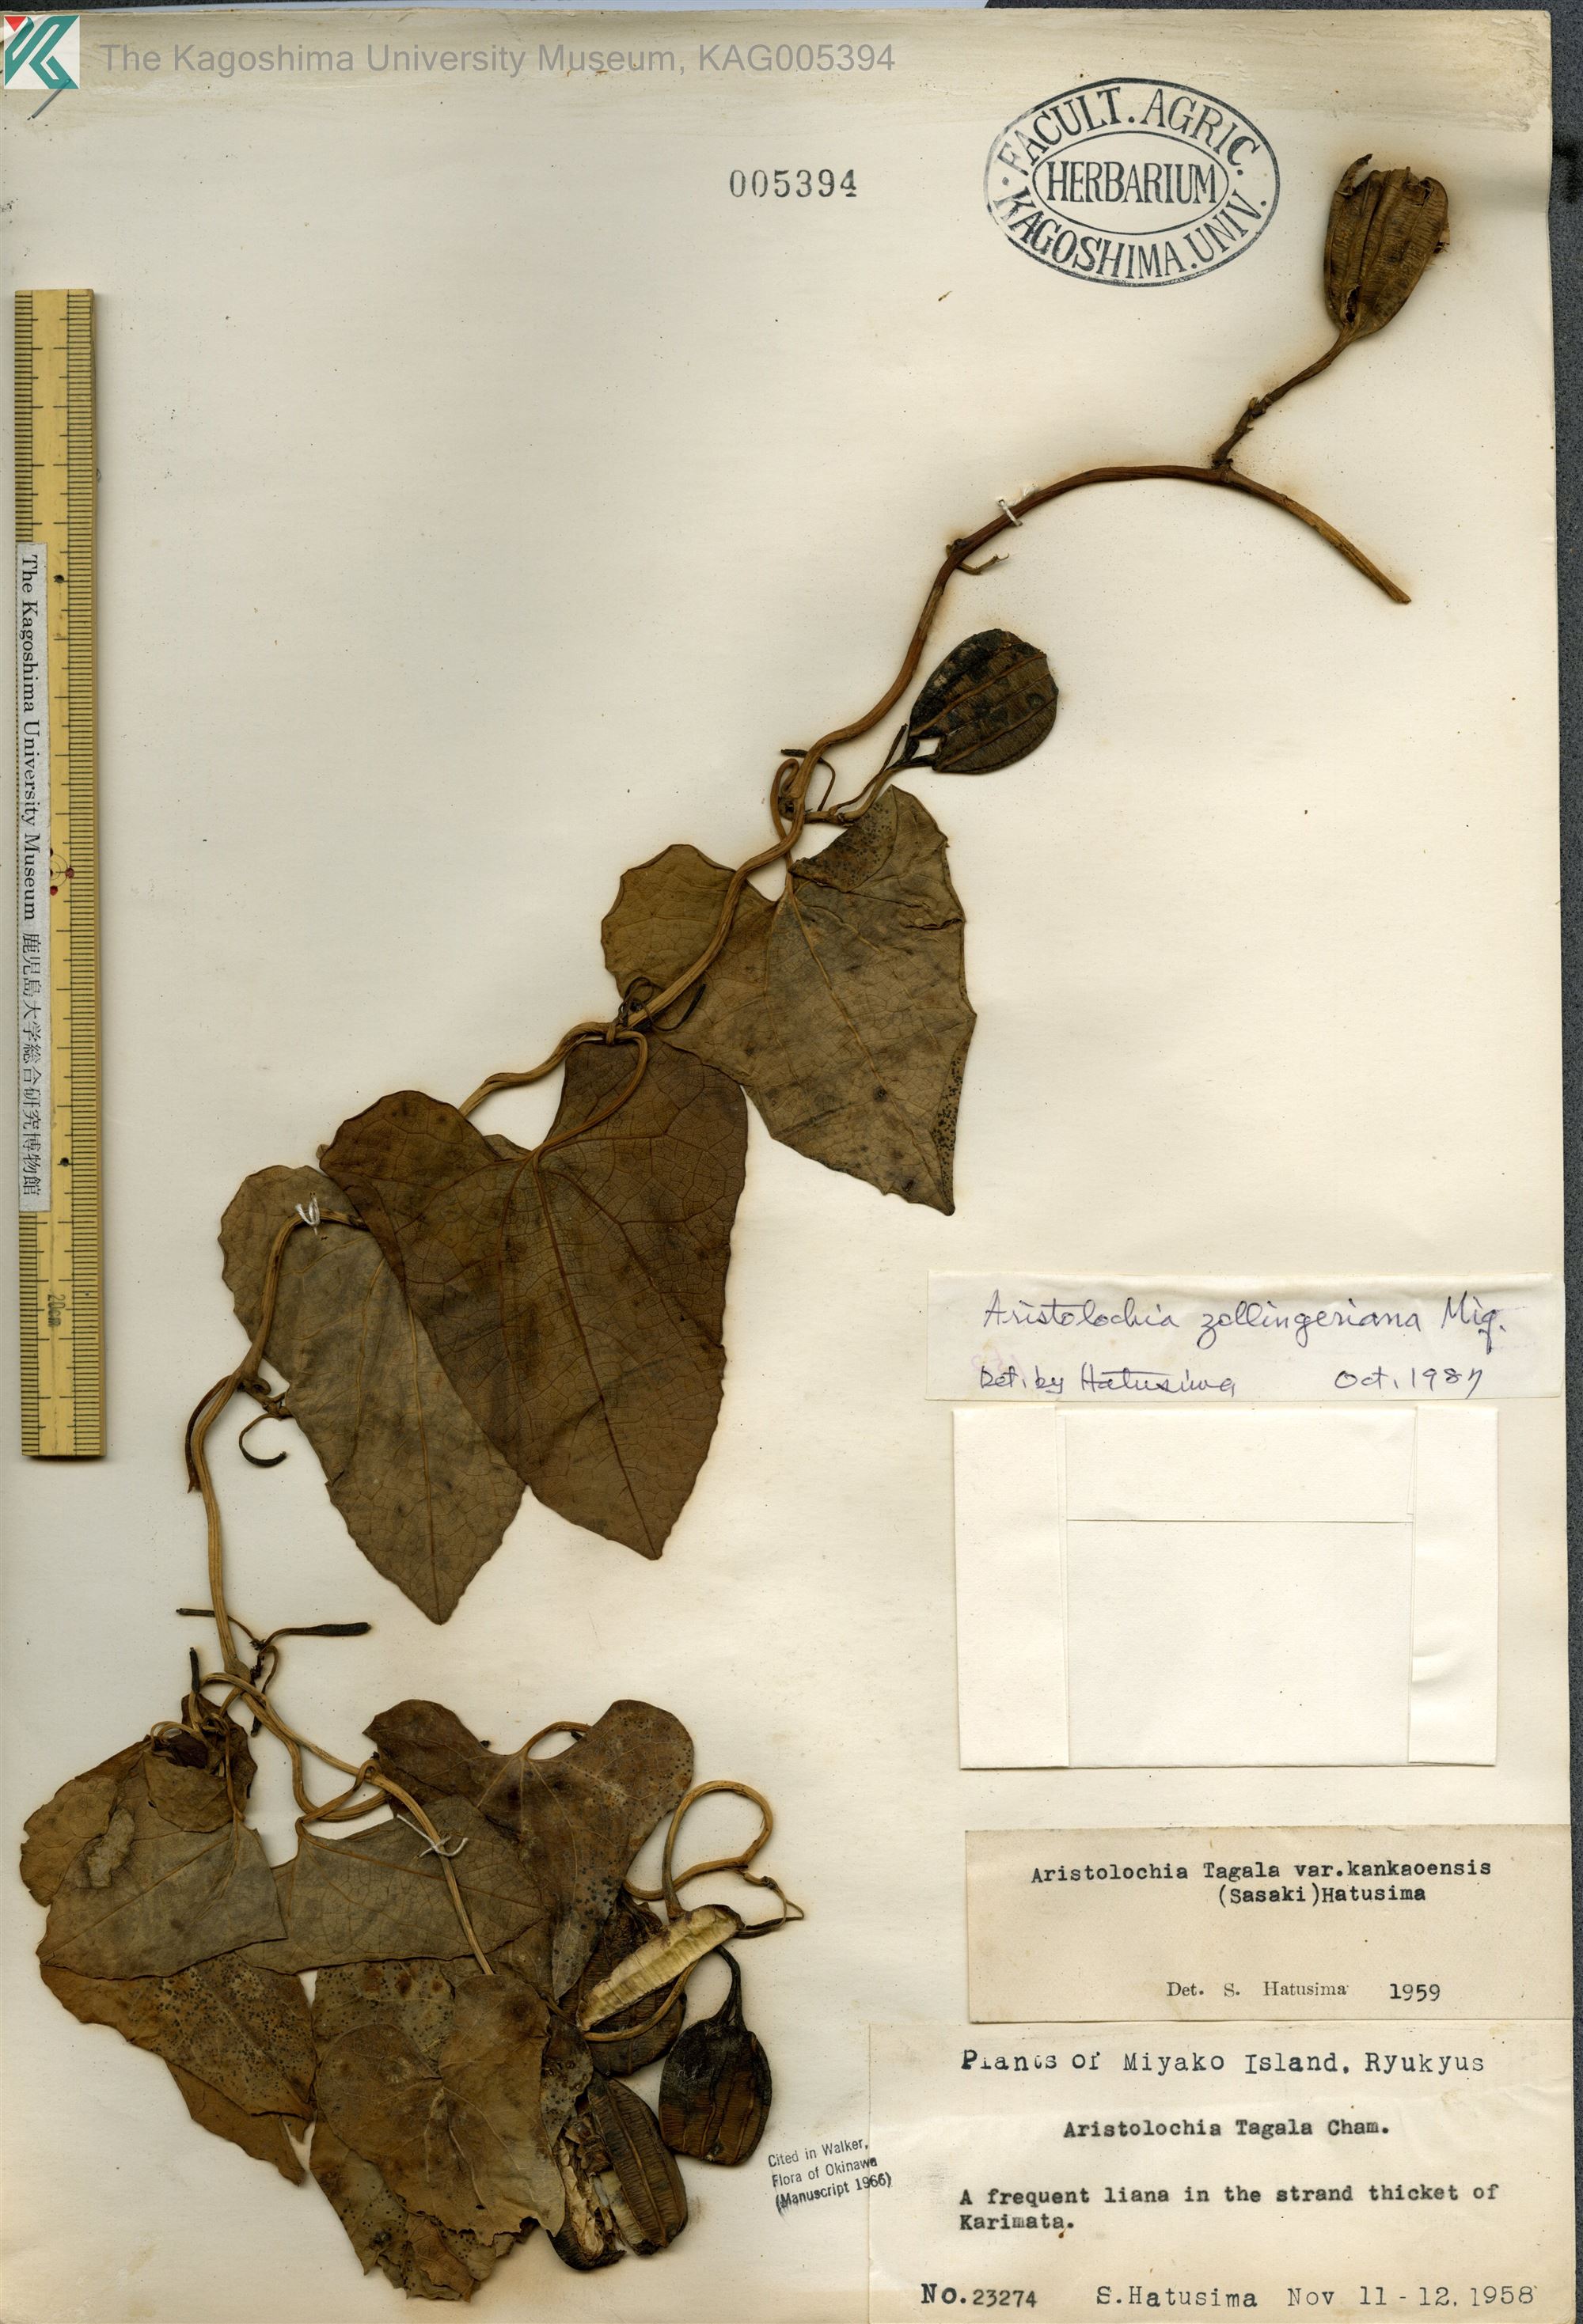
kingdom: Plantae
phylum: Tracheophyta
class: Magnoliopsida
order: Piperales
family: Aristolochiaceae
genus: Aristolochia
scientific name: Aristolochia zollingeriana
